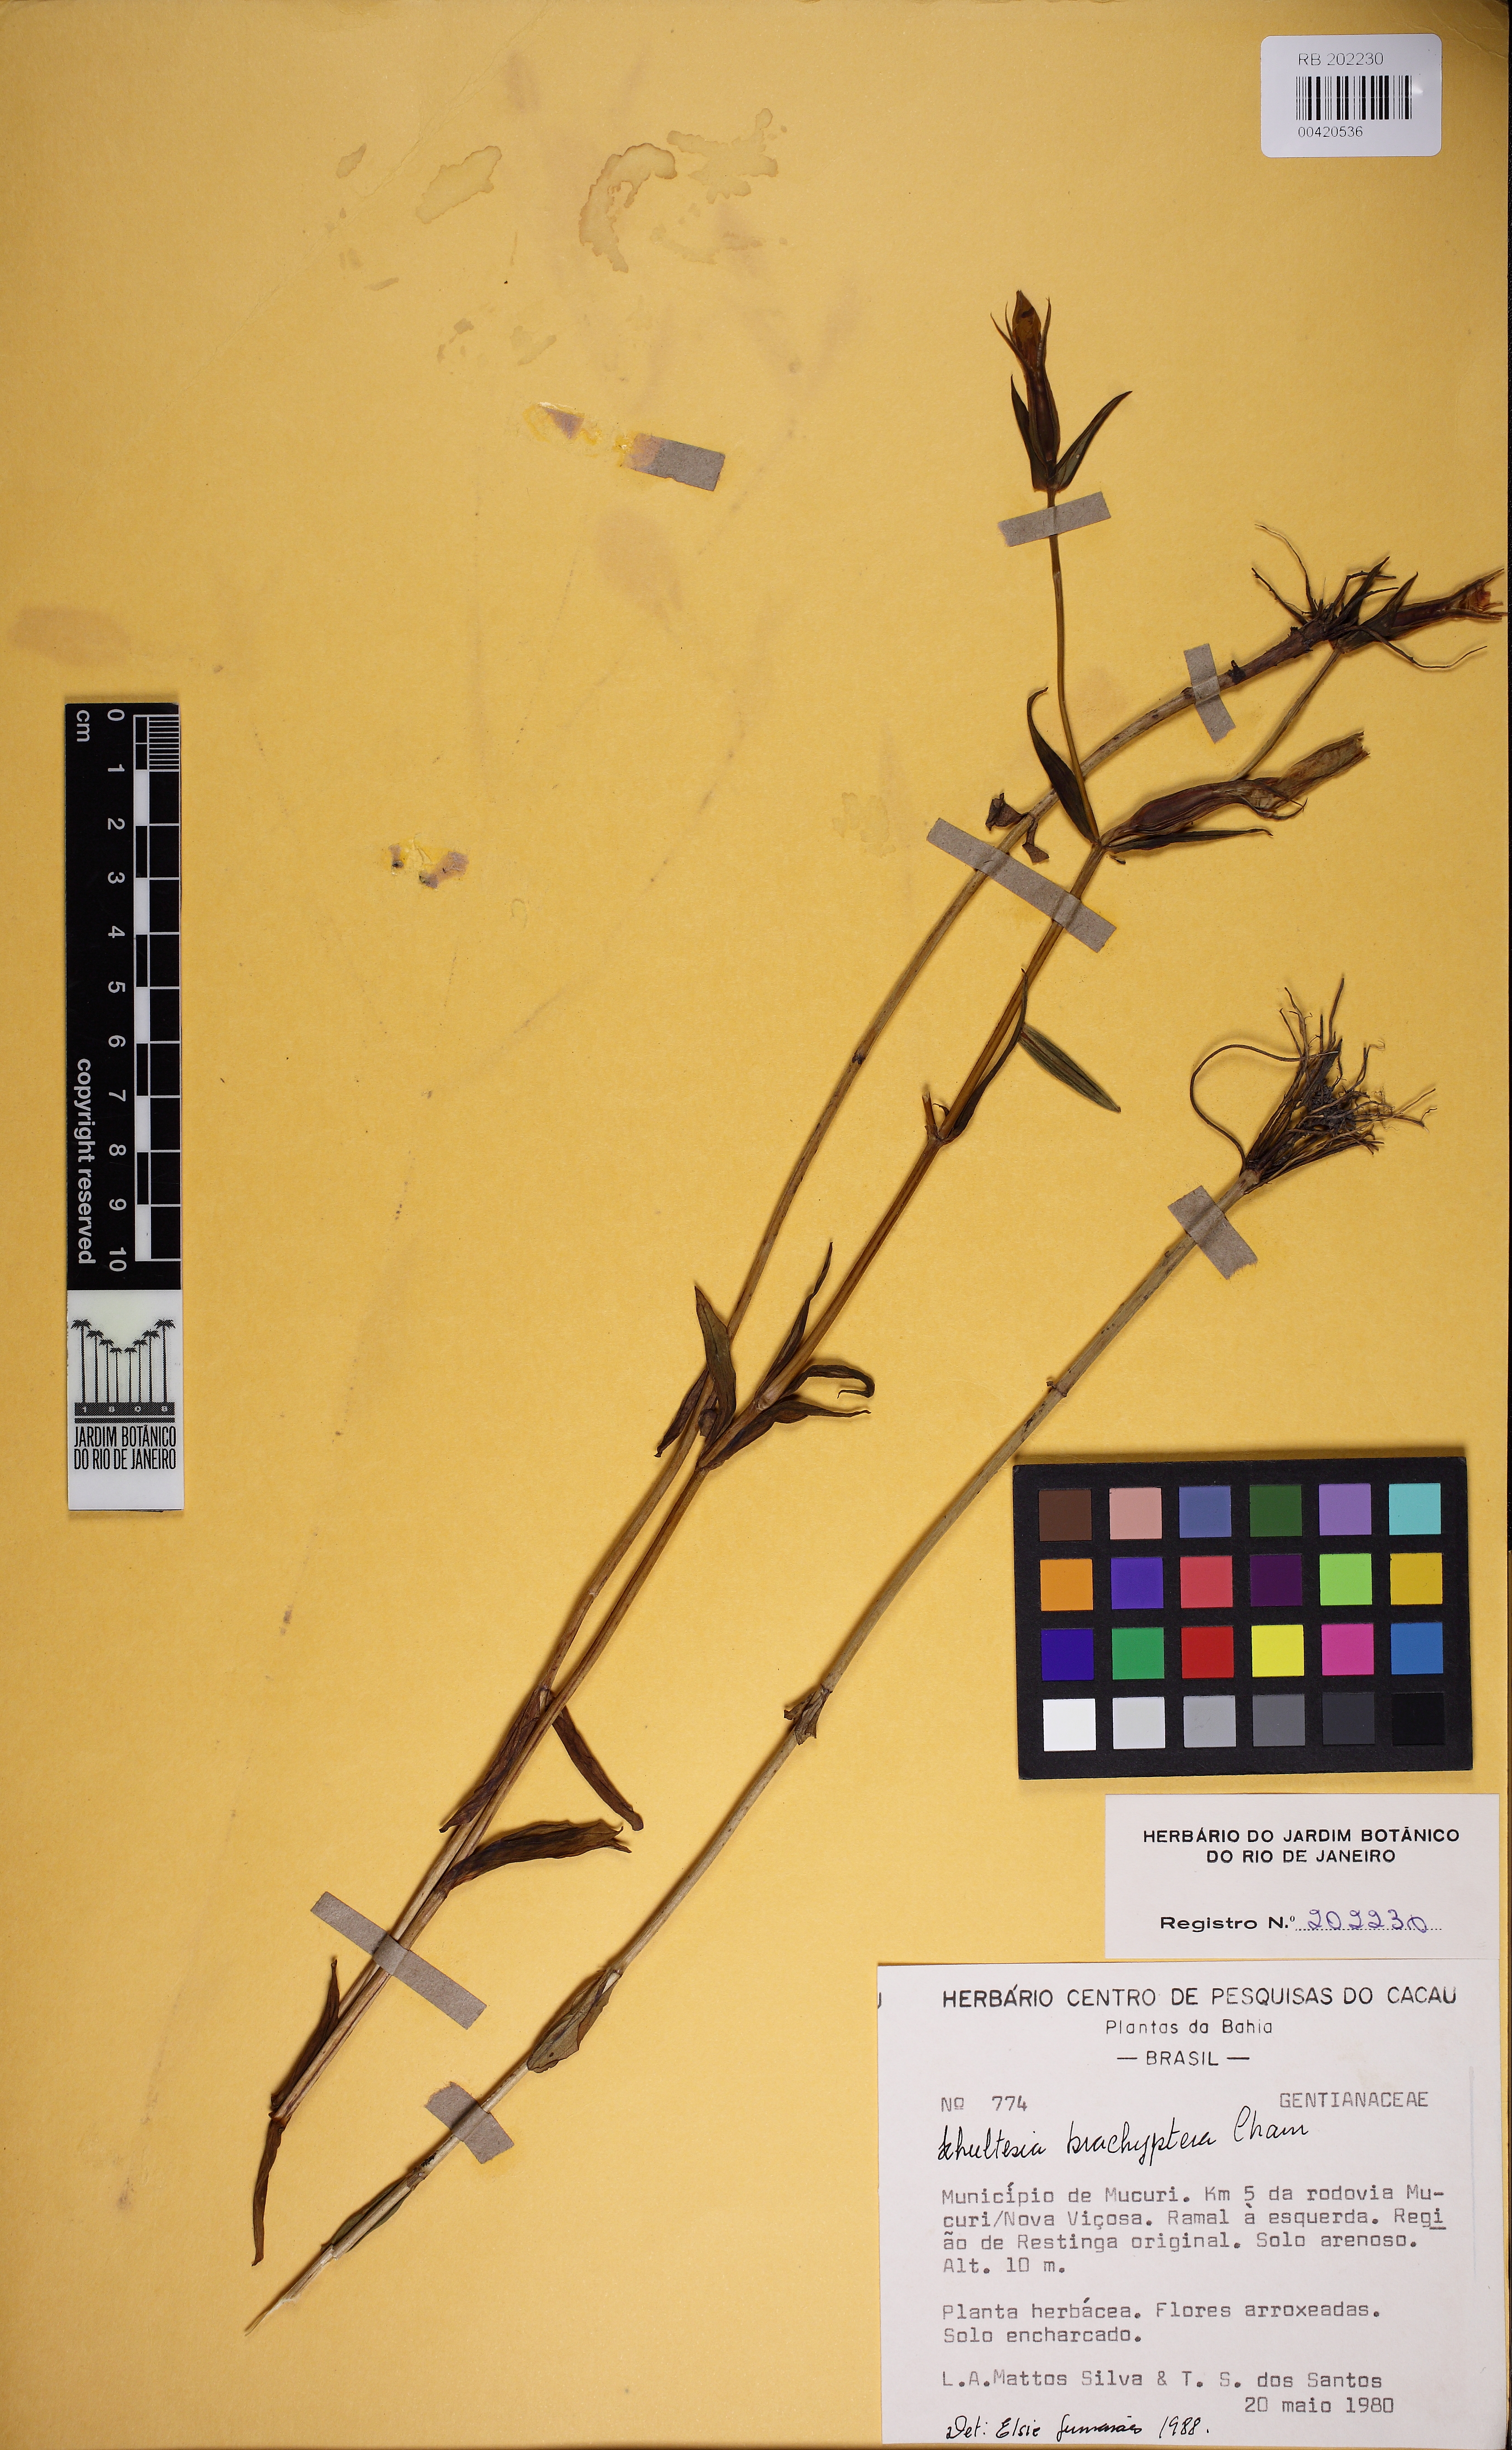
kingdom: Plantae
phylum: Tracheophyta
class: Magnoliopsida
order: Gentianales
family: Gentianaceae
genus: Schultesia
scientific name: Schultesia brachyptera
